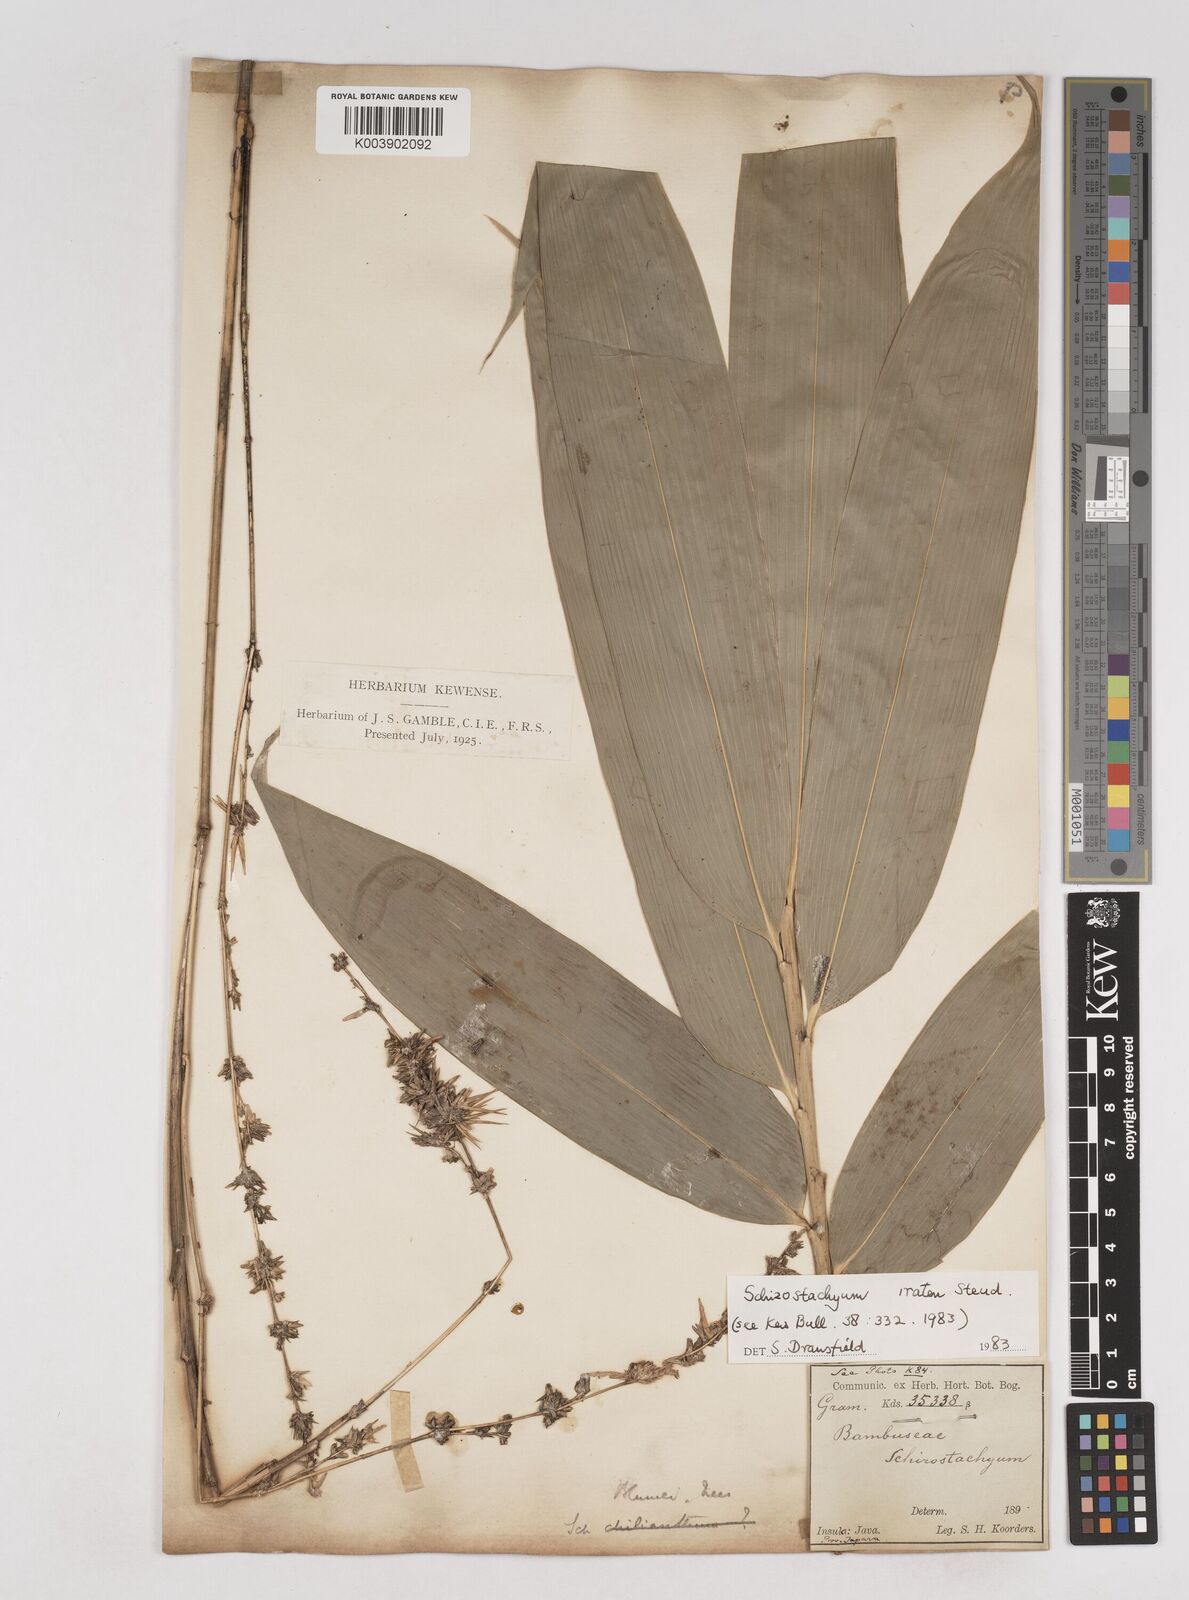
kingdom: Plantae
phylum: Tracheophyta
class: Liliopsida
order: Poales
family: Poaceae
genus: Schizostachyum
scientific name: Schizostachyum iraten
